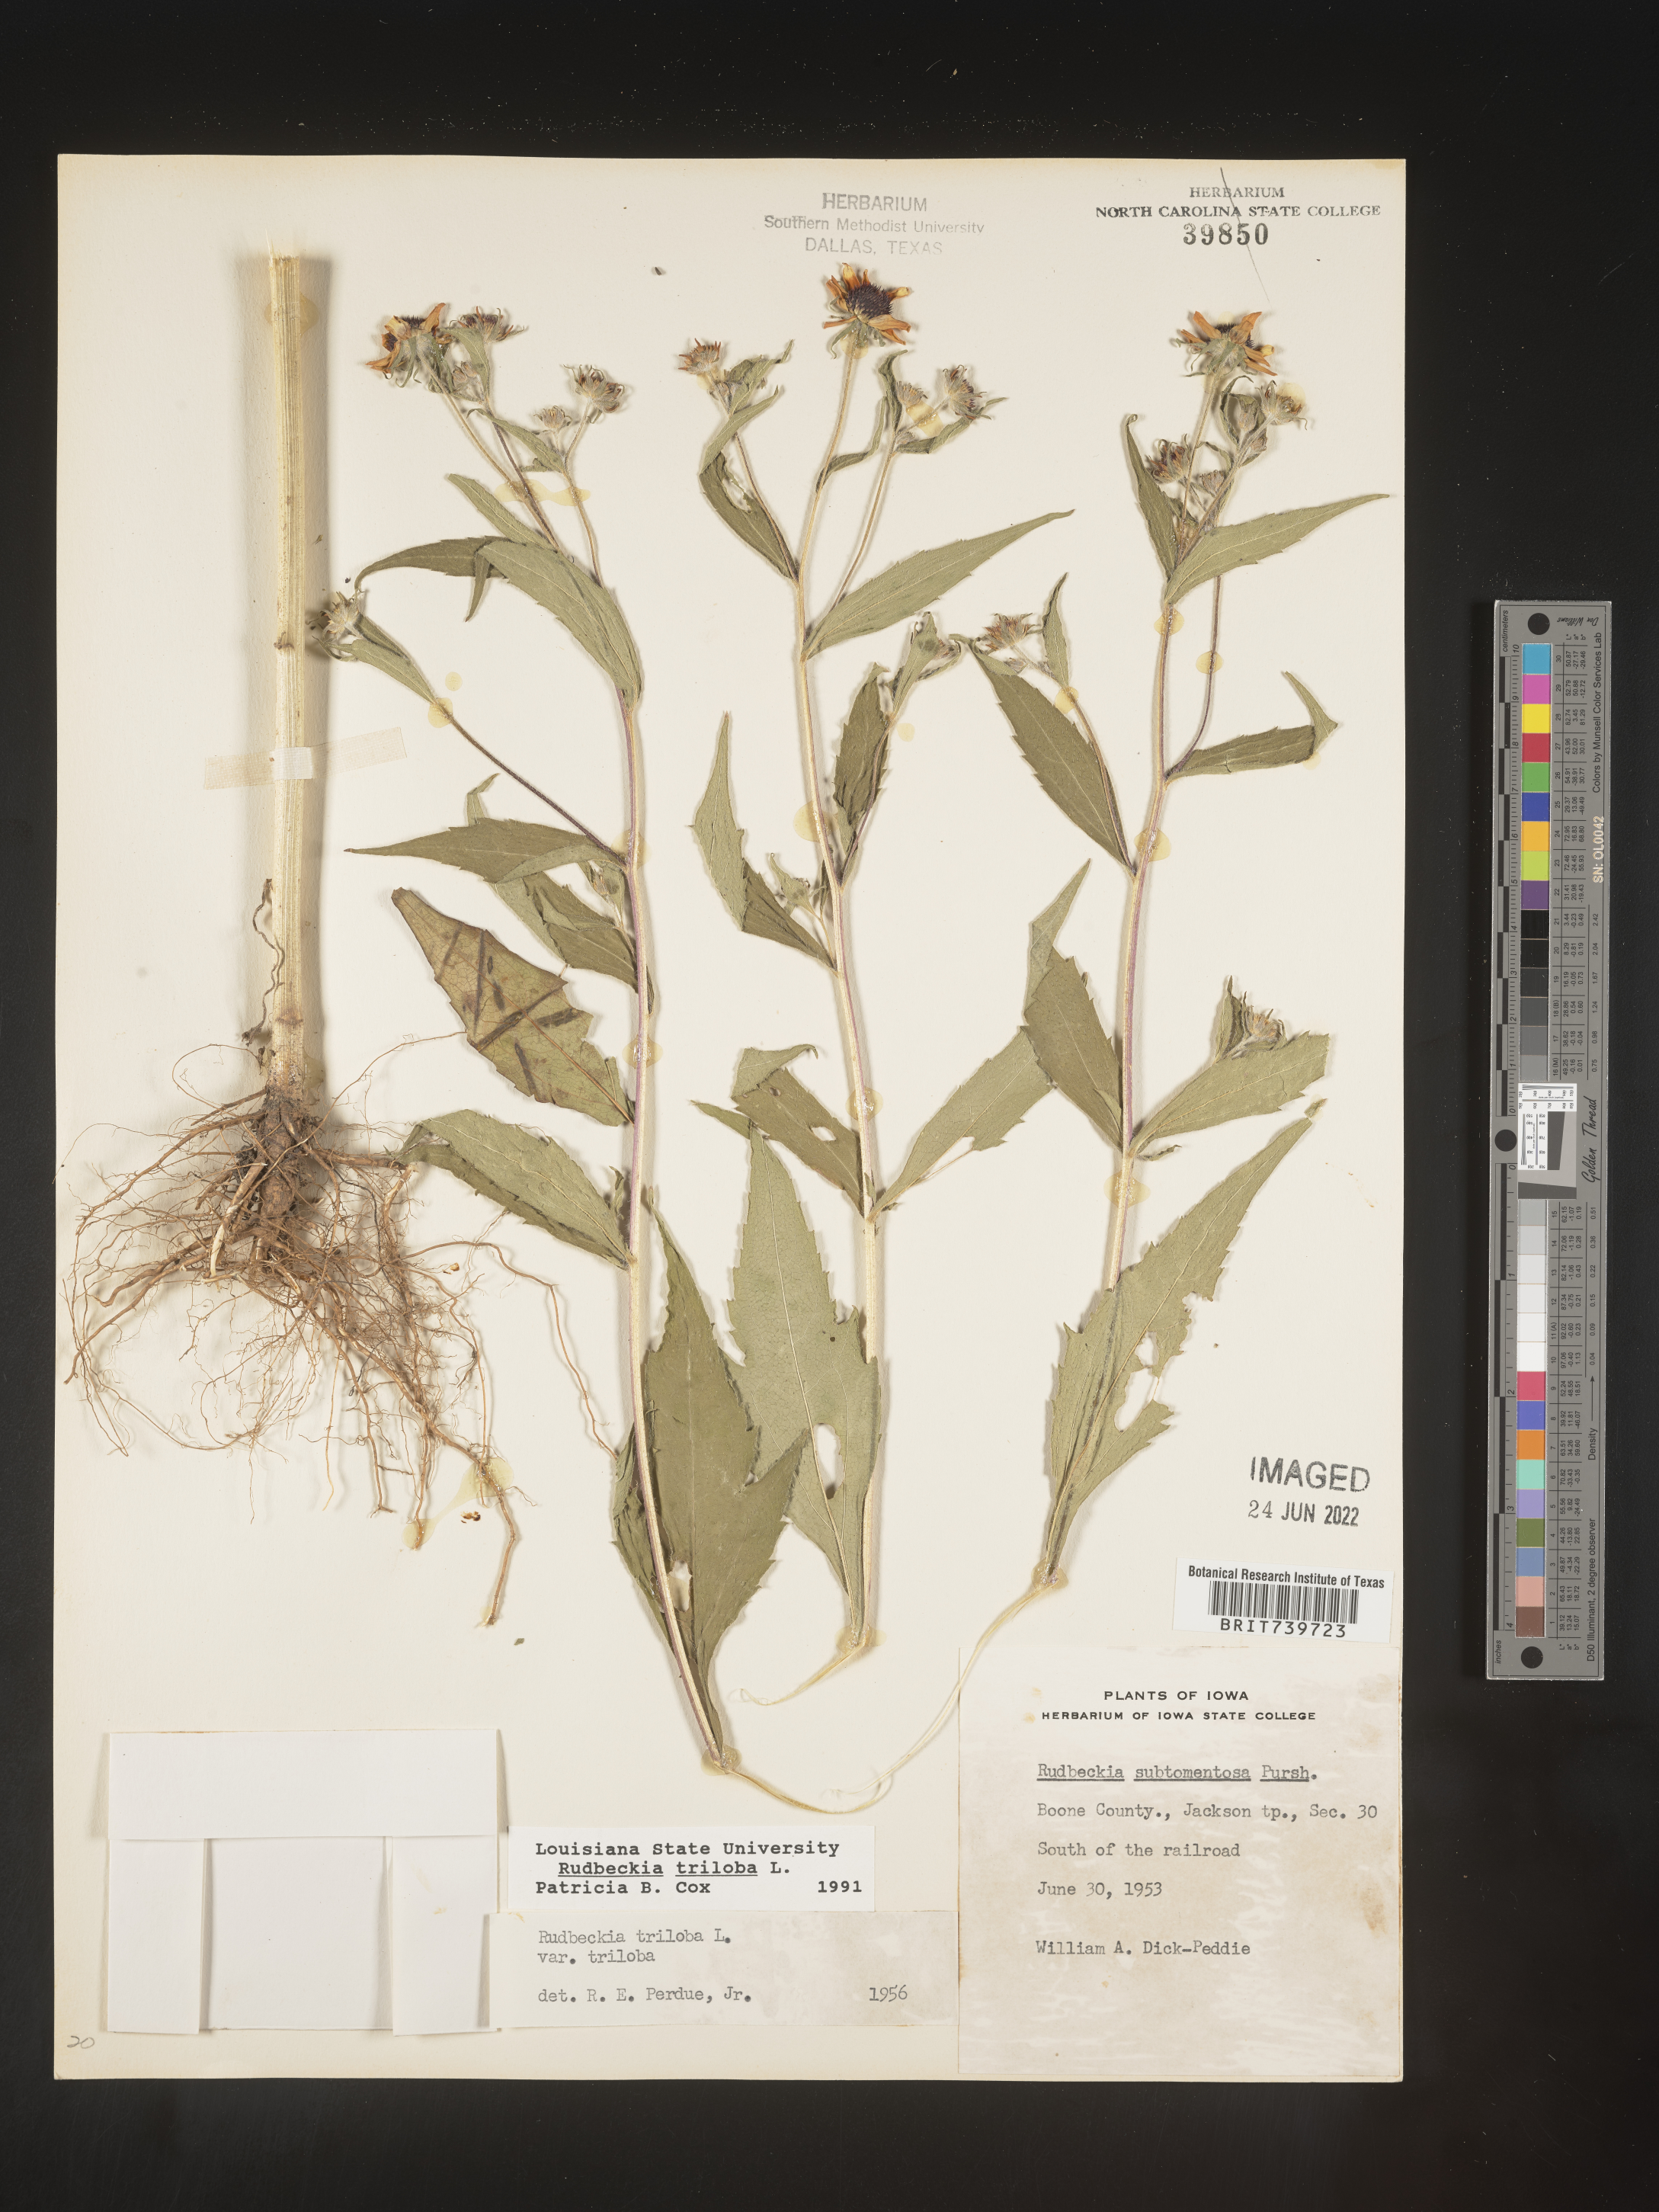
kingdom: Plantae
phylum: Tracheophyta
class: Magnoliopsida
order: Asterales
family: Asteraceae
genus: Rudbeckia
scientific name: Rudbeckia triloba
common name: Thin-leaved coneflower
